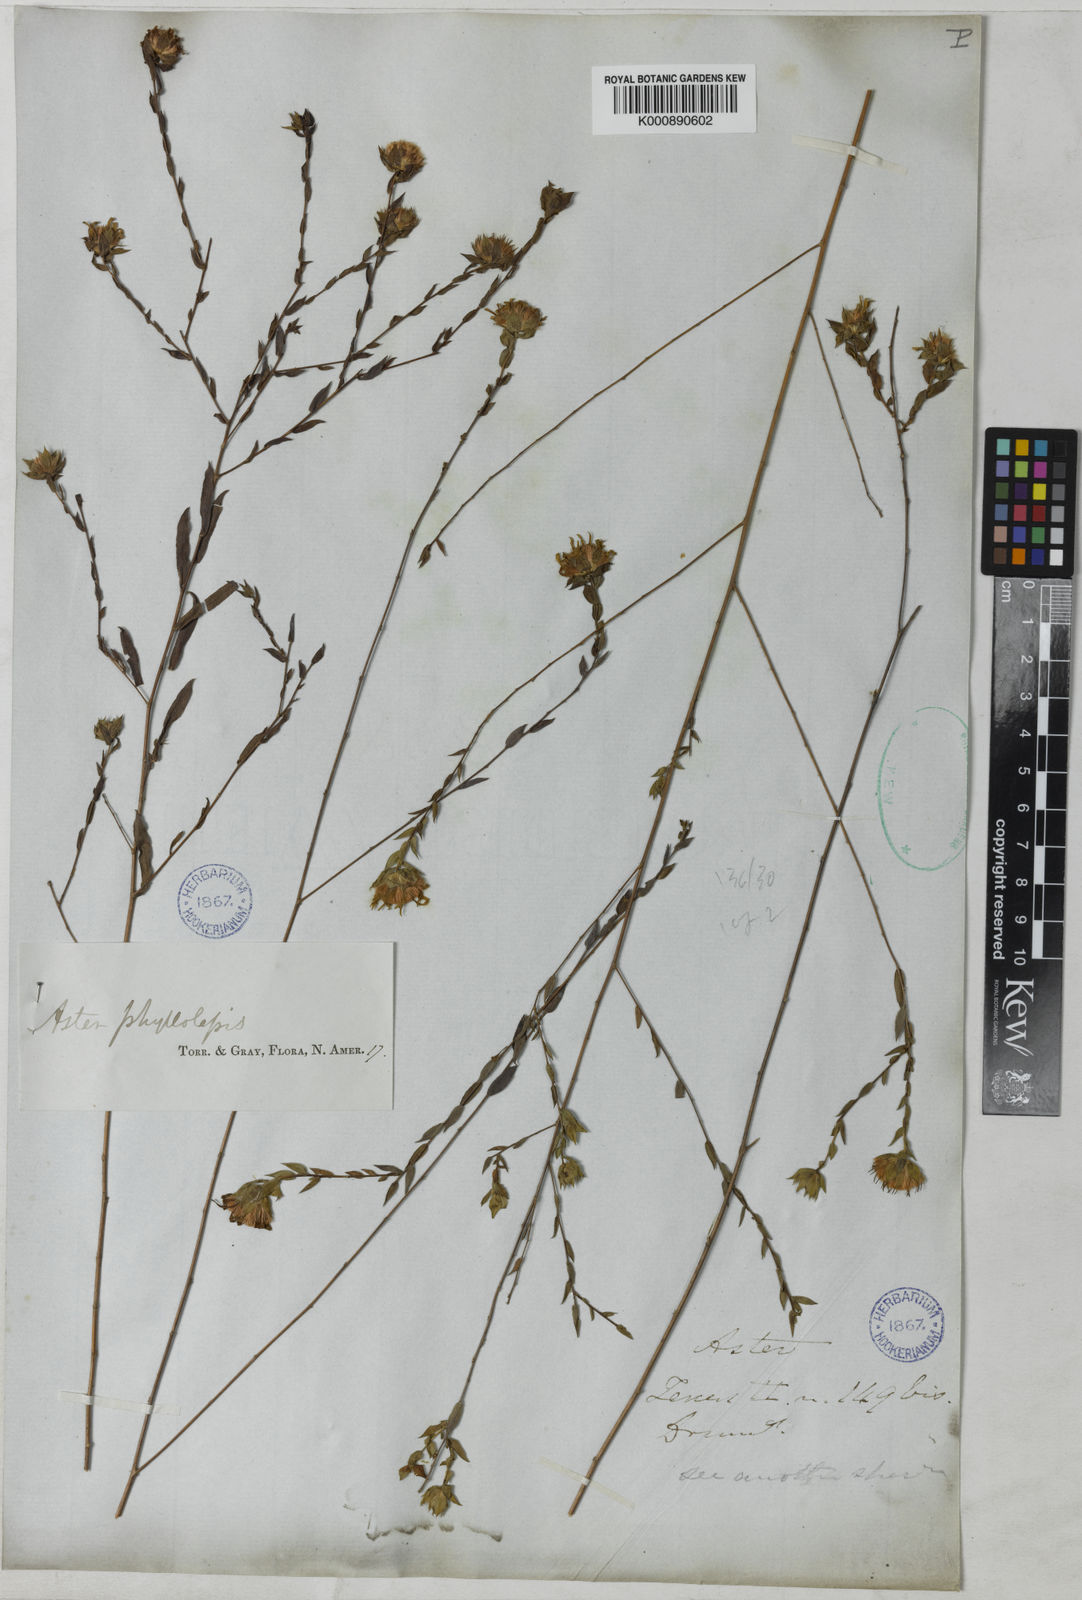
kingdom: Plantae
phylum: Tracheophyta
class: Magnoliopsida
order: Asterales
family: Asteraceae
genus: Symphyotrichum
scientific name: Symphyotrichum pratense
